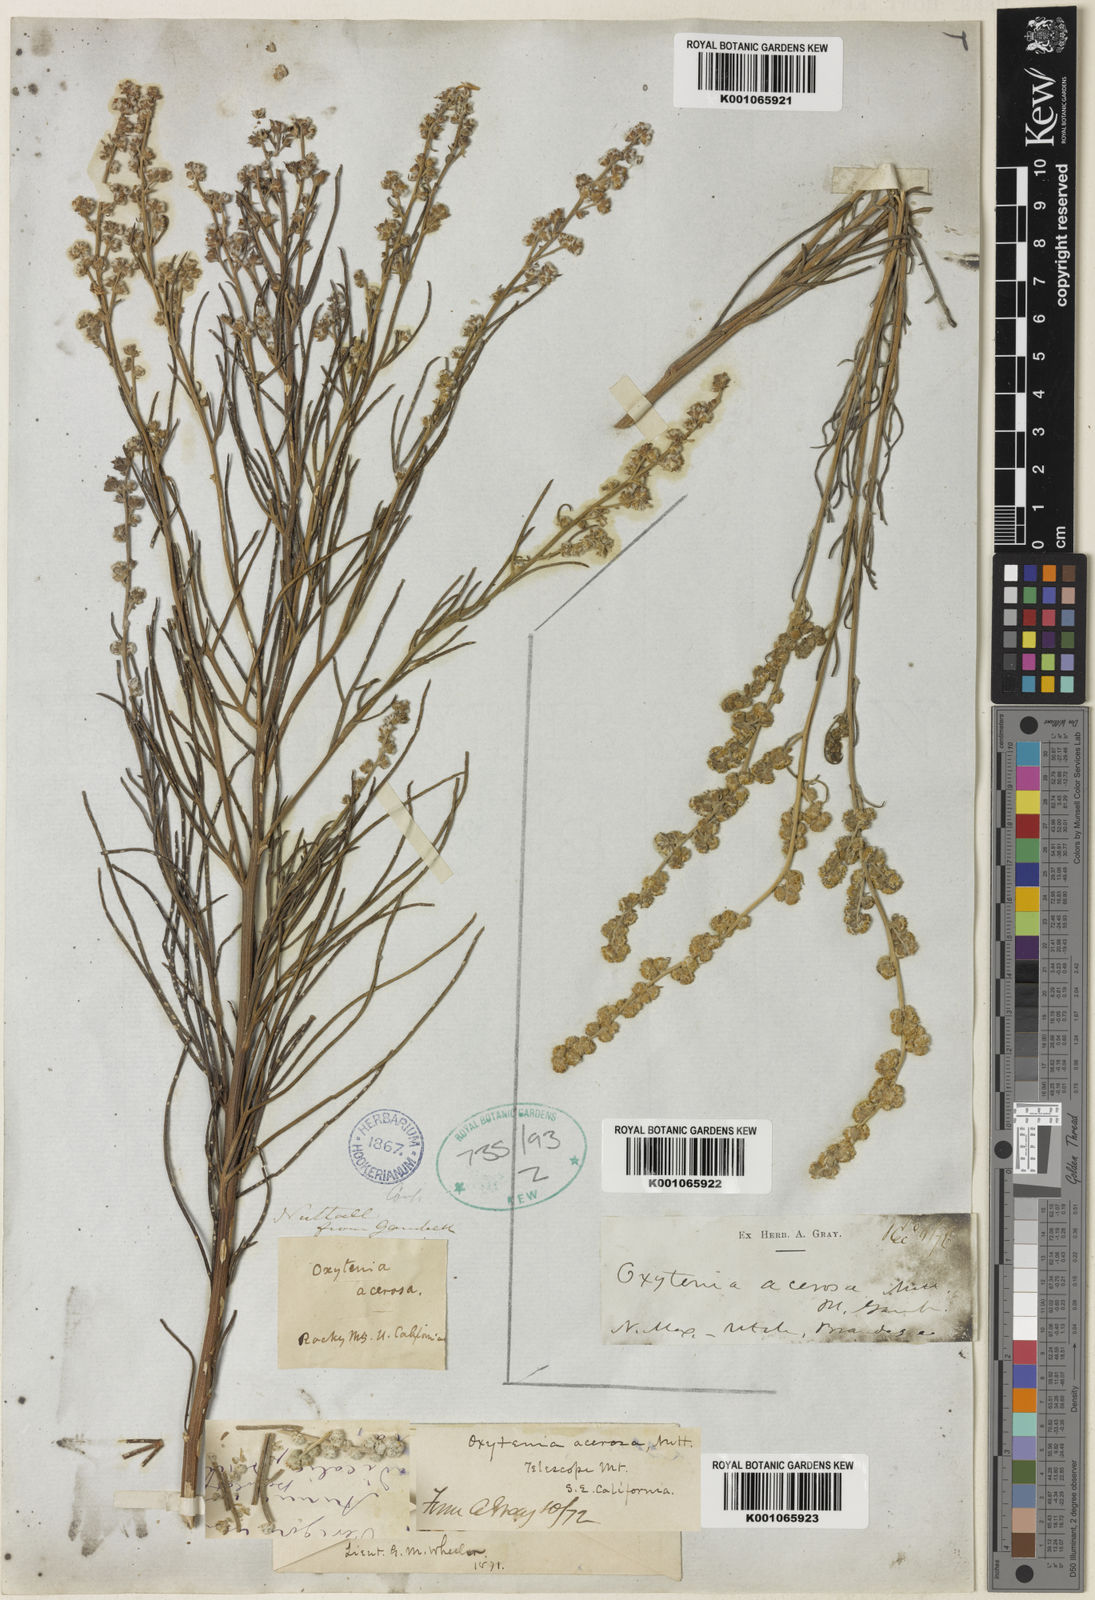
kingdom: Plantae
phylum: Tracheophyta
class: Magnoliopsida
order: Asterales
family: Asteraceae
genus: Euphrosyne
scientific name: Euphrosyne acerosa
